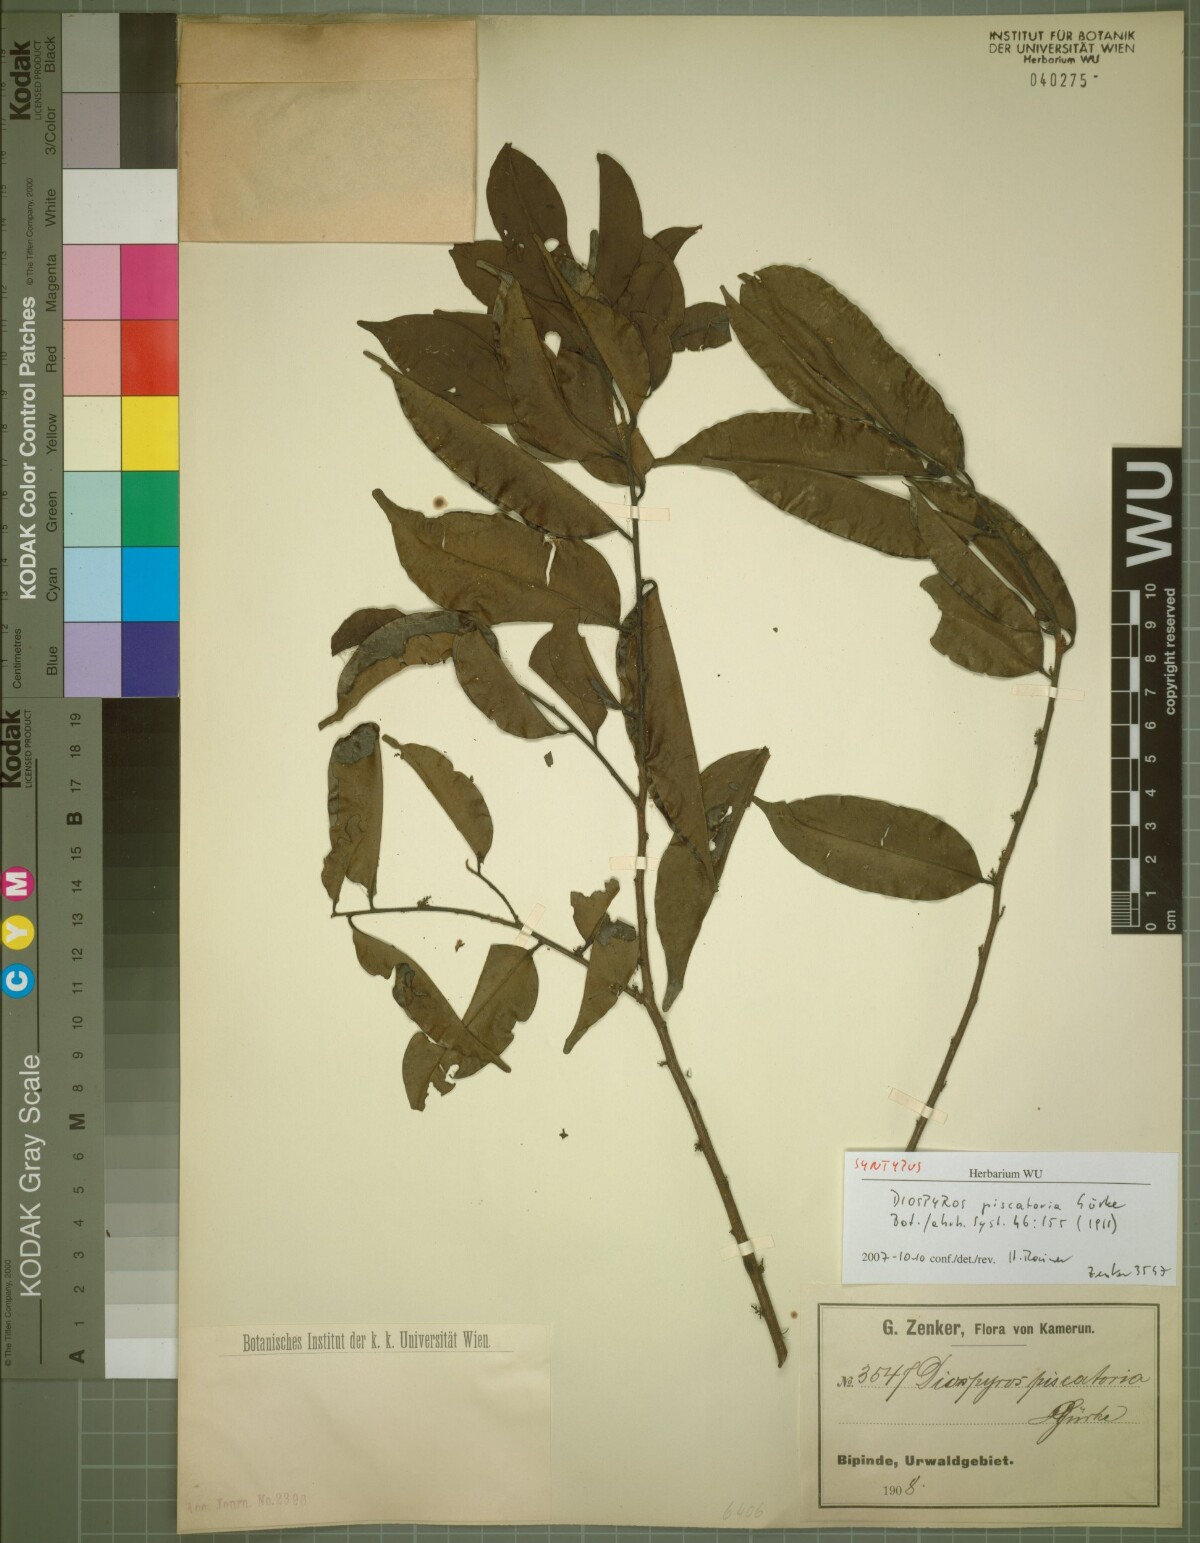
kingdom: Plantae
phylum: Tracheophyta
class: Magnoliopsida
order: Ericales
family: Ebenaceae
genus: Diospyros
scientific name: Diospyros piscatoria
